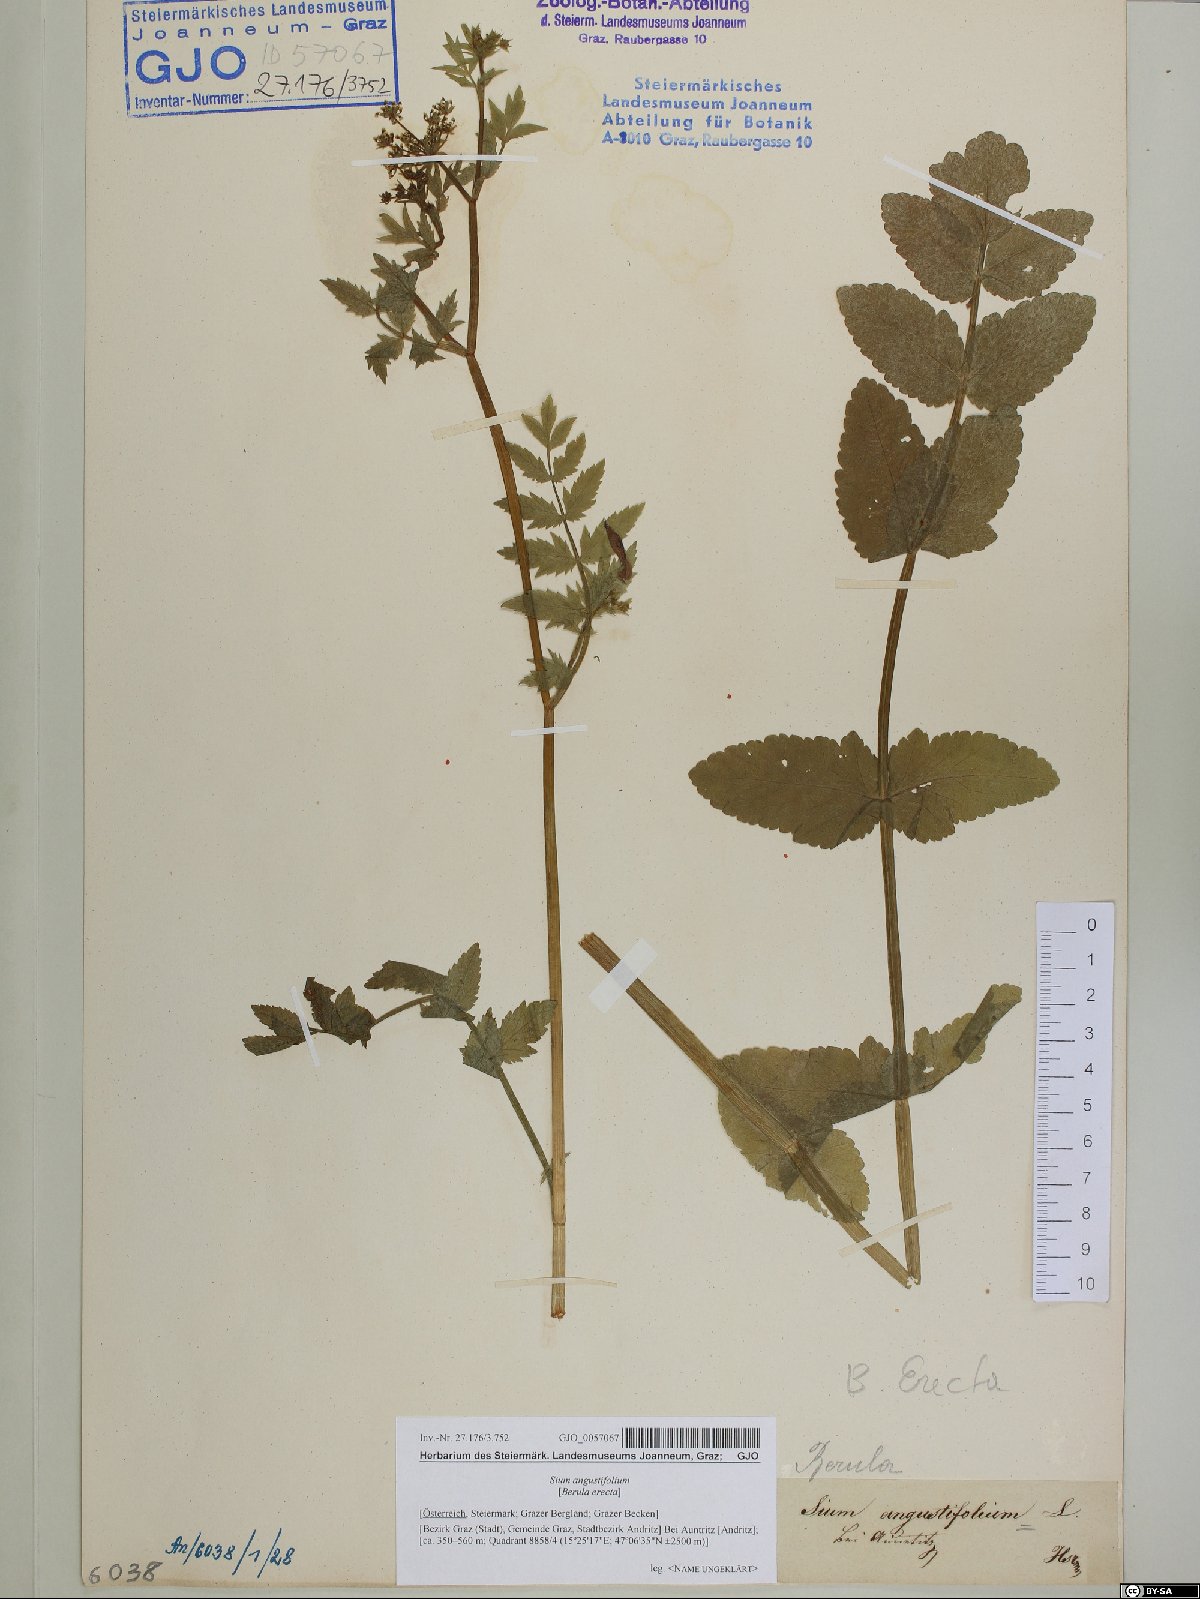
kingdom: Plantae
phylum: Tracheophyta
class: Magnoliopsida
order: Apiales
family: Apiaceae
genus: Berula
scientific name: Berula erecta
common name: Lesser water-parsnip
